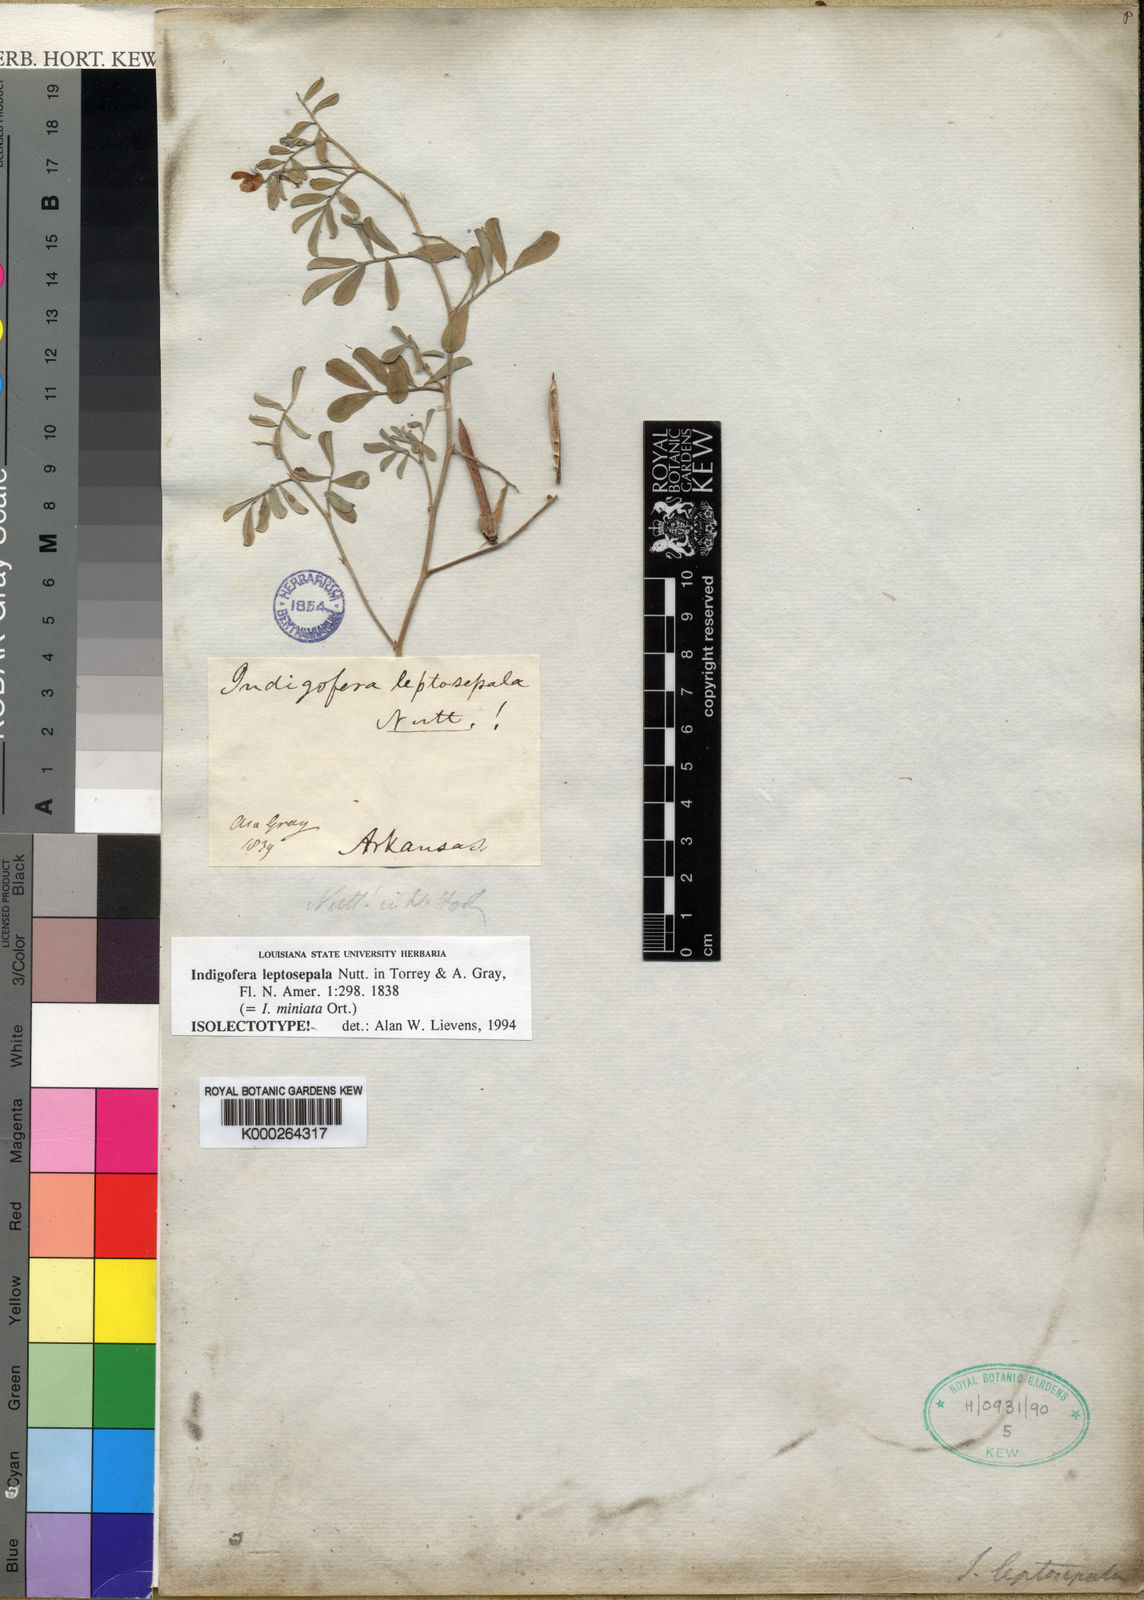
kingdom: Plantae
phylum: Tracheophyta
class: Magnoliopsida
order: Fabales
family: Fabaceae
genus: Indigofera
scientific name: Indigofera miniata
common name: Coast indigo
